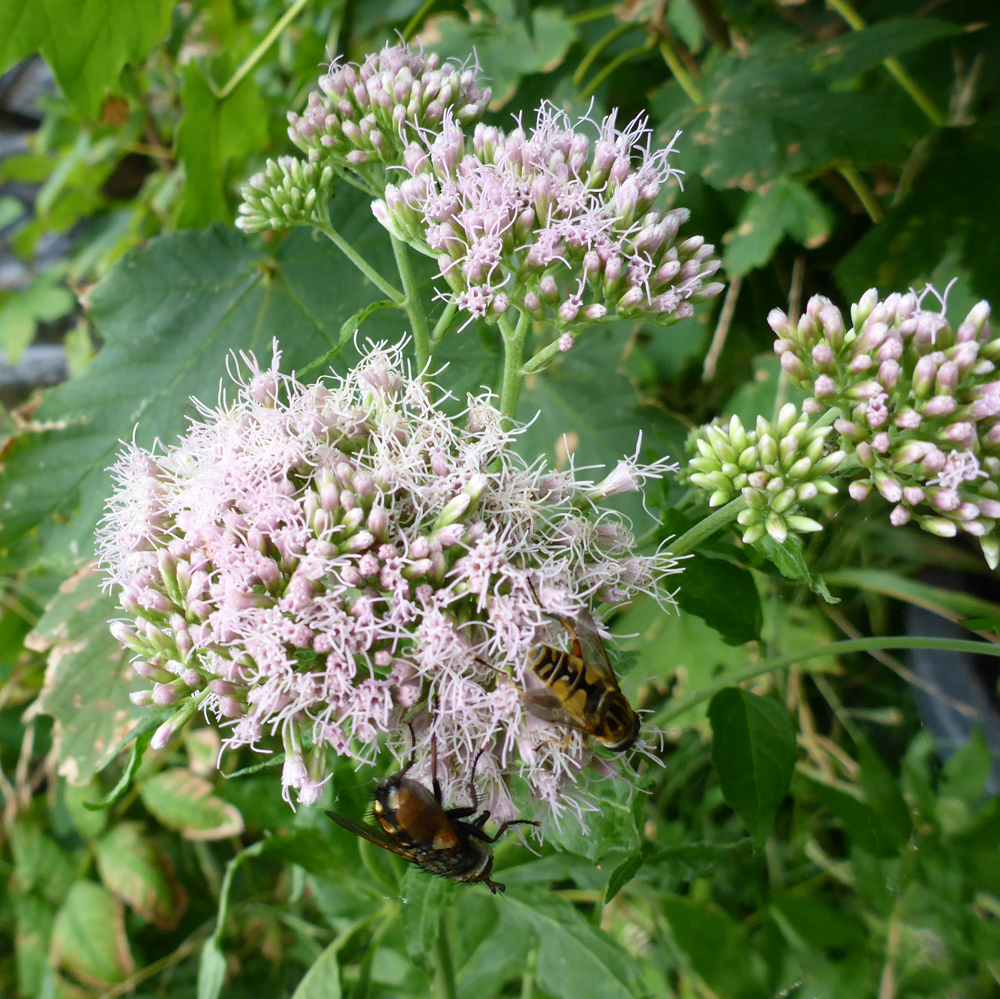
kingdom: Plantae
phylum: Tracheophyta
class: Magnoliopsida
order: Asterales
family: Asteraceae
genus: Eupatorium
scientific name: Eupatorium cannabinum
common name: Hemp-agrimony
